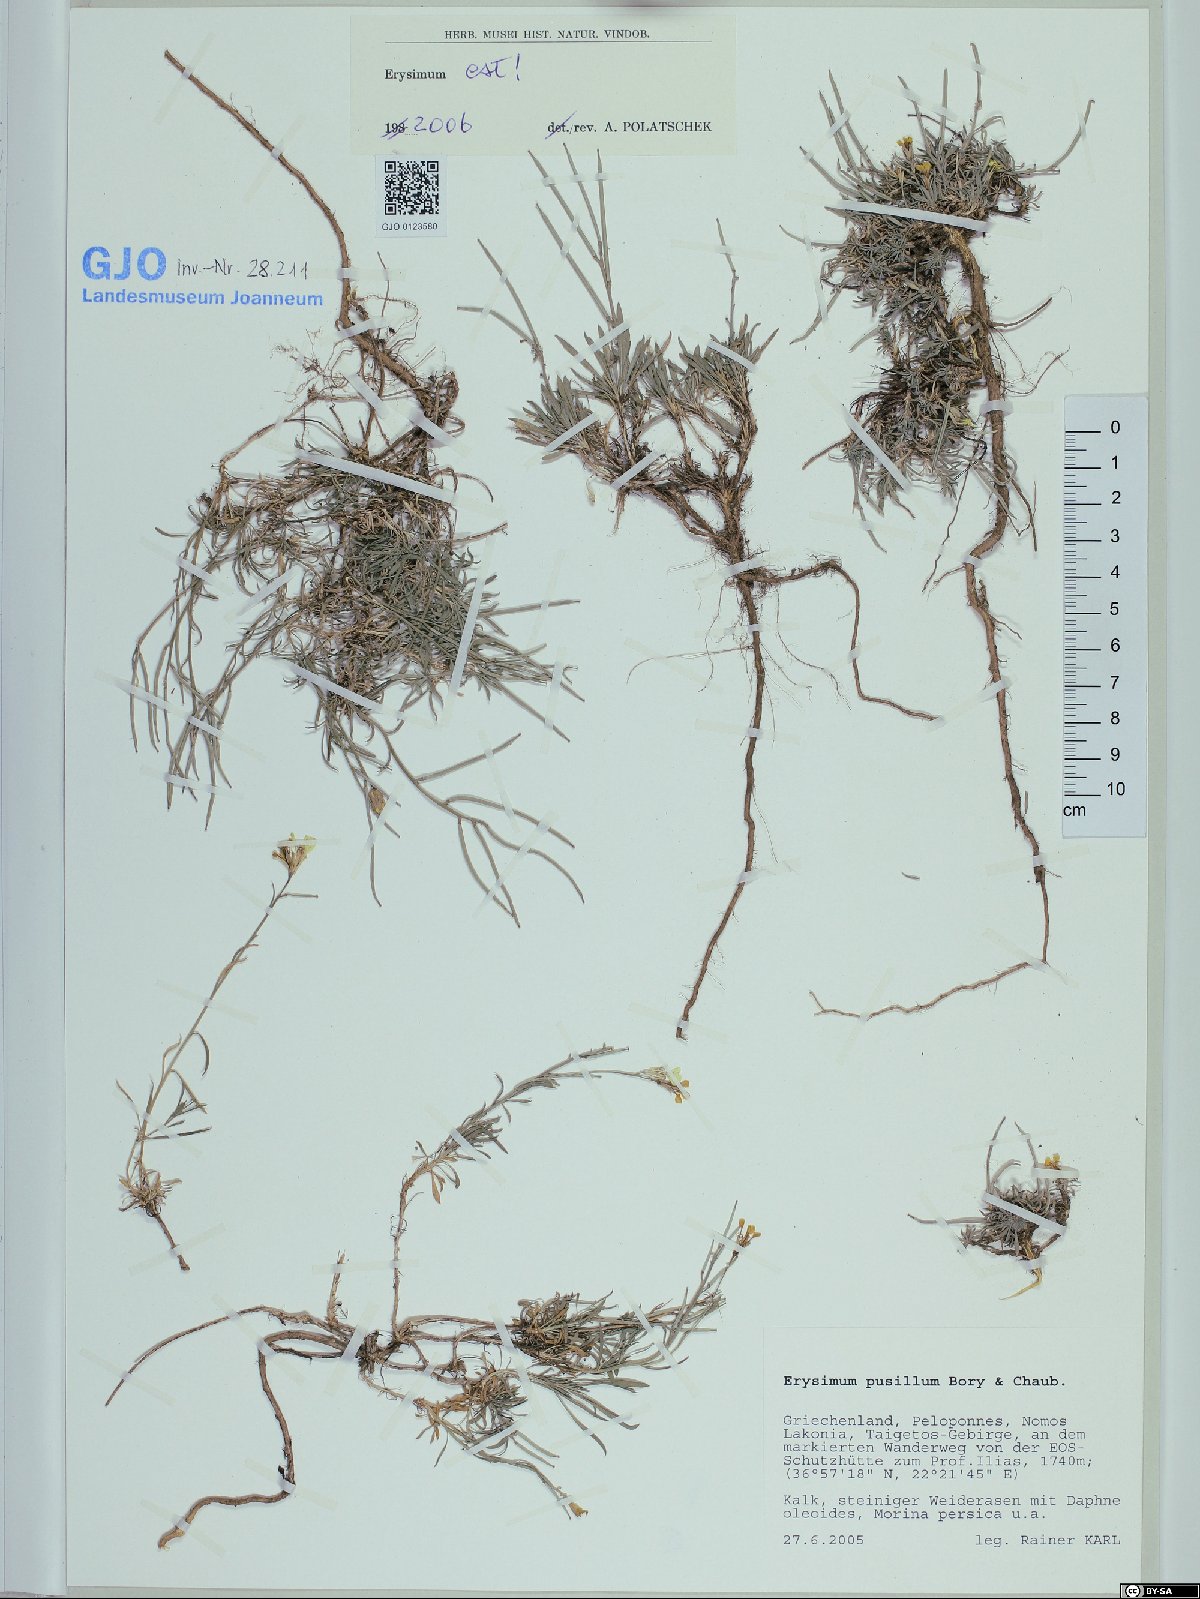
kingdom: Plantae
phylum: Tracheophyta
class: Magnoliopsida
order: Brassicales
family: Brassicaceae
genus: Erysimum
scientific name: Erysimum pusillum
